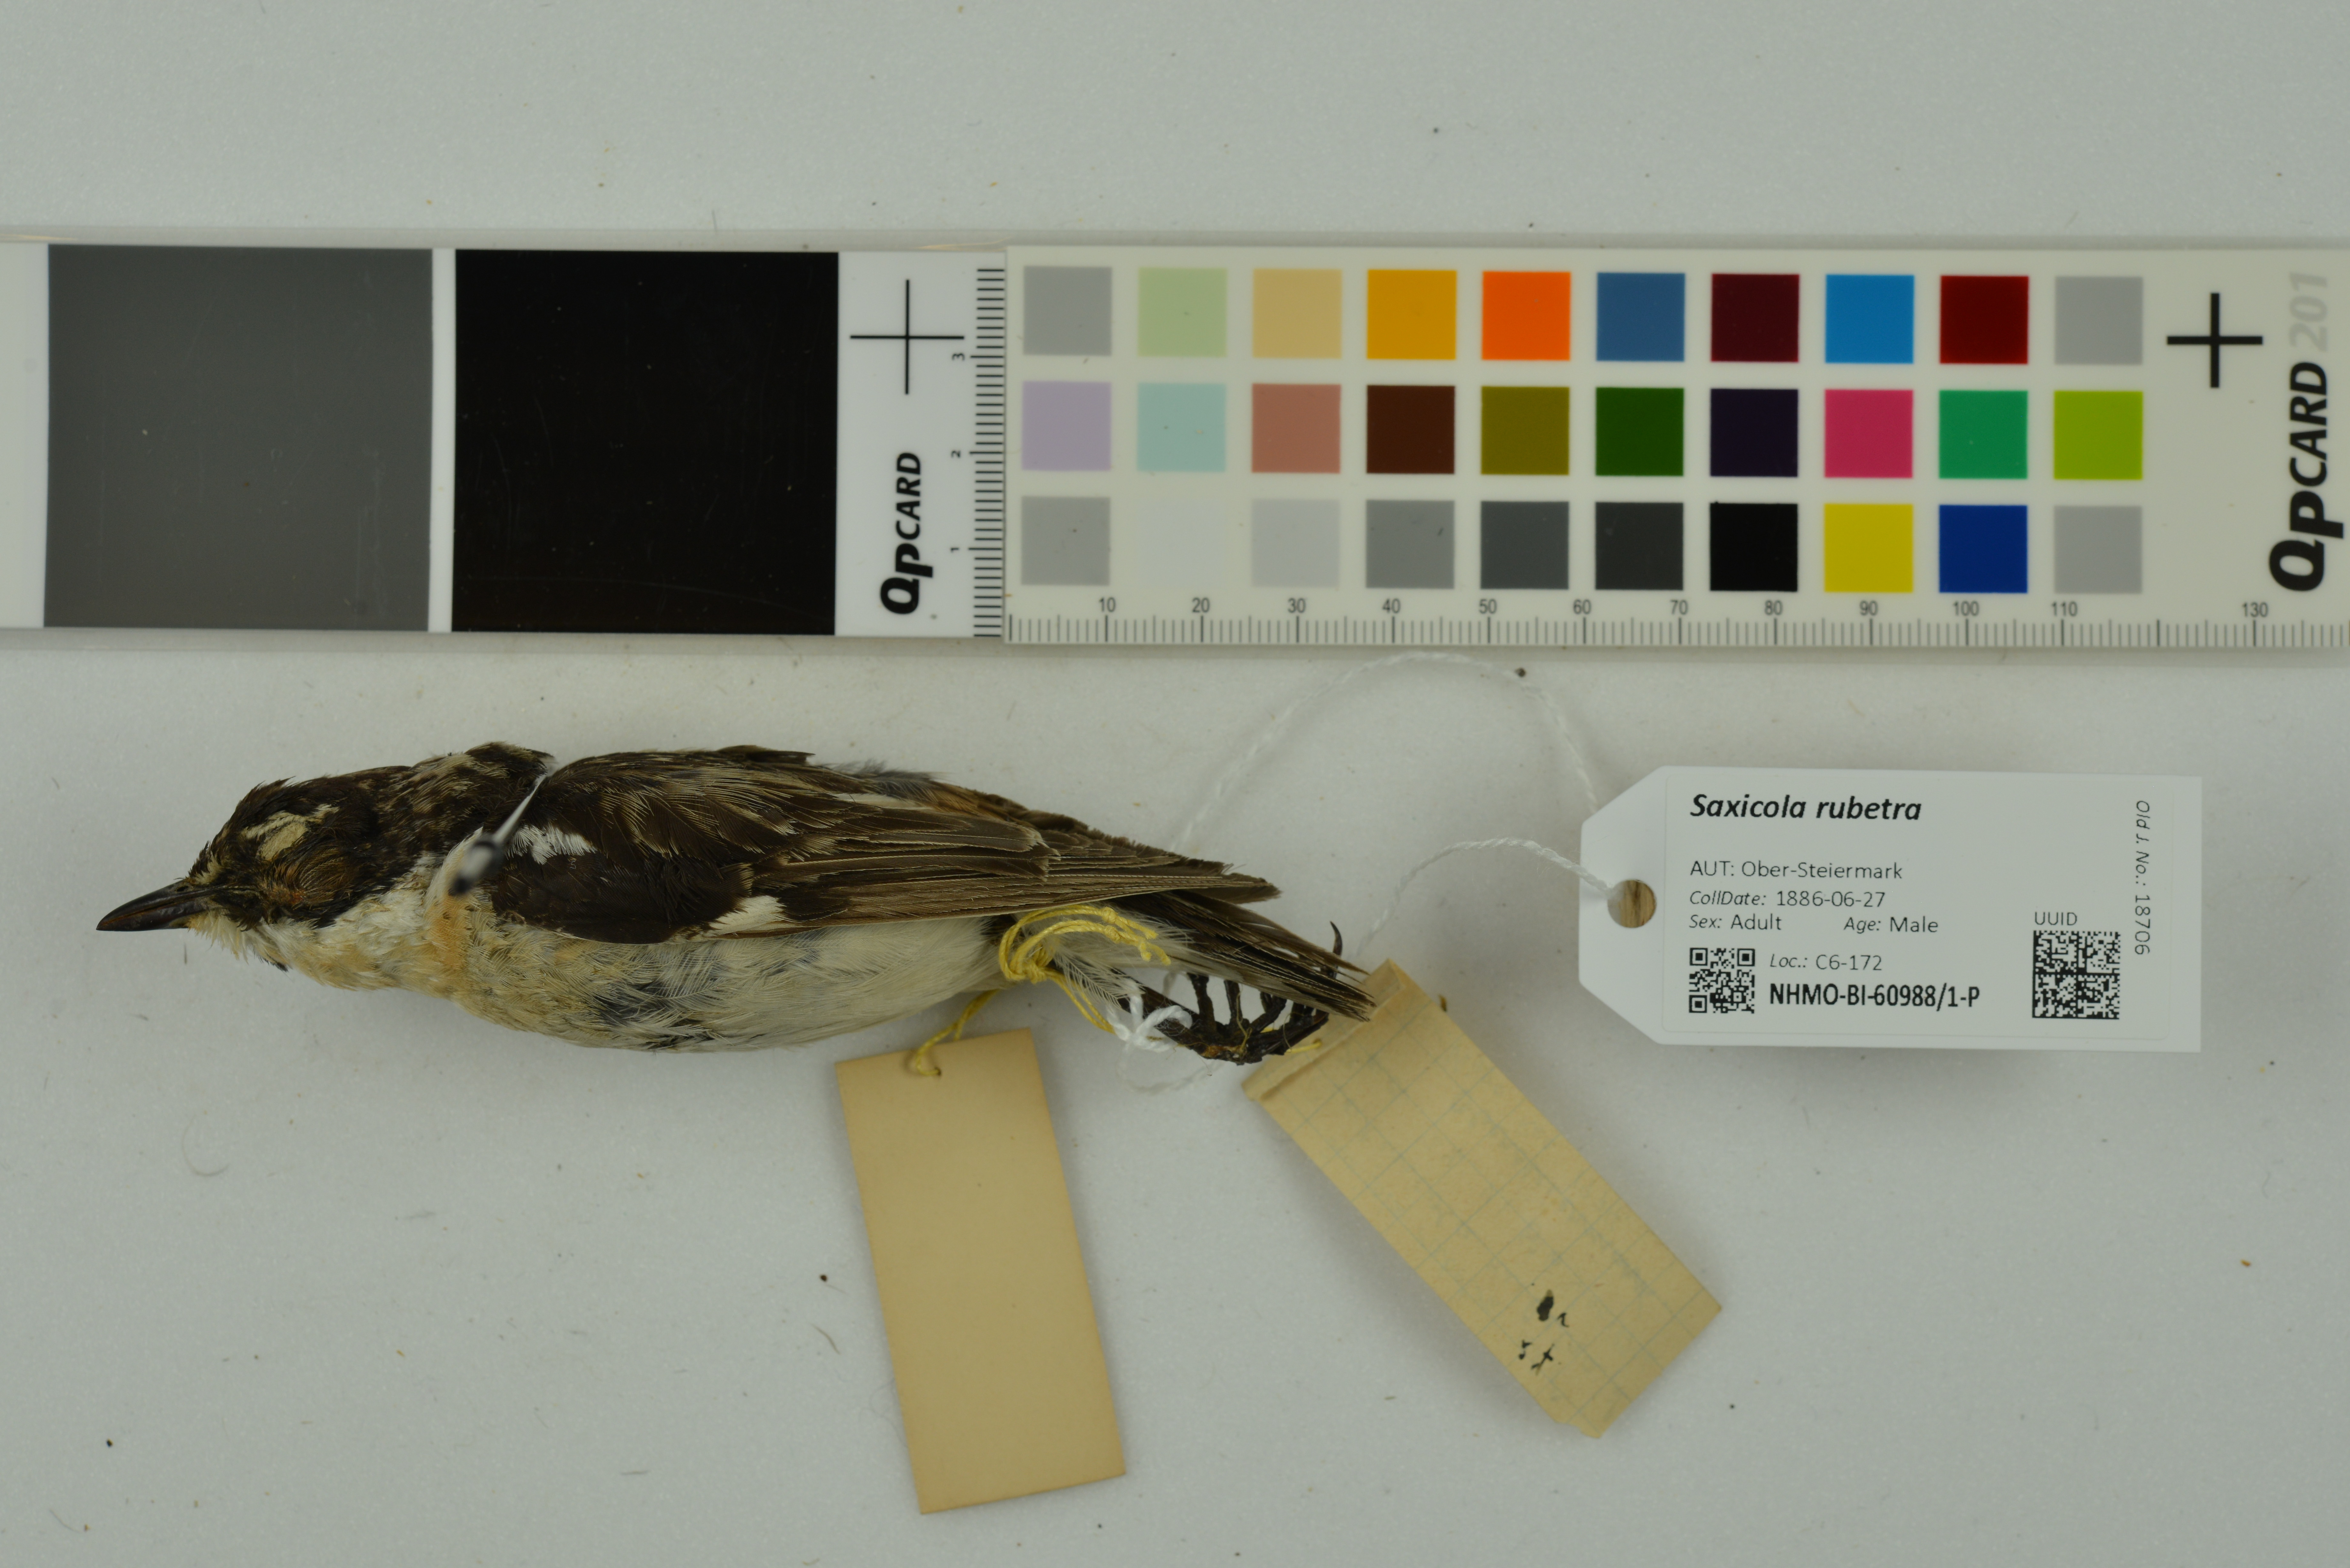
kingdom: Animalia
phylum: Chordata
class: Aves
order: Passeriformes
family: Muscicapidae
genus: Saxicola
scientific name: Saxicola rubetra
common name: Whinchat
